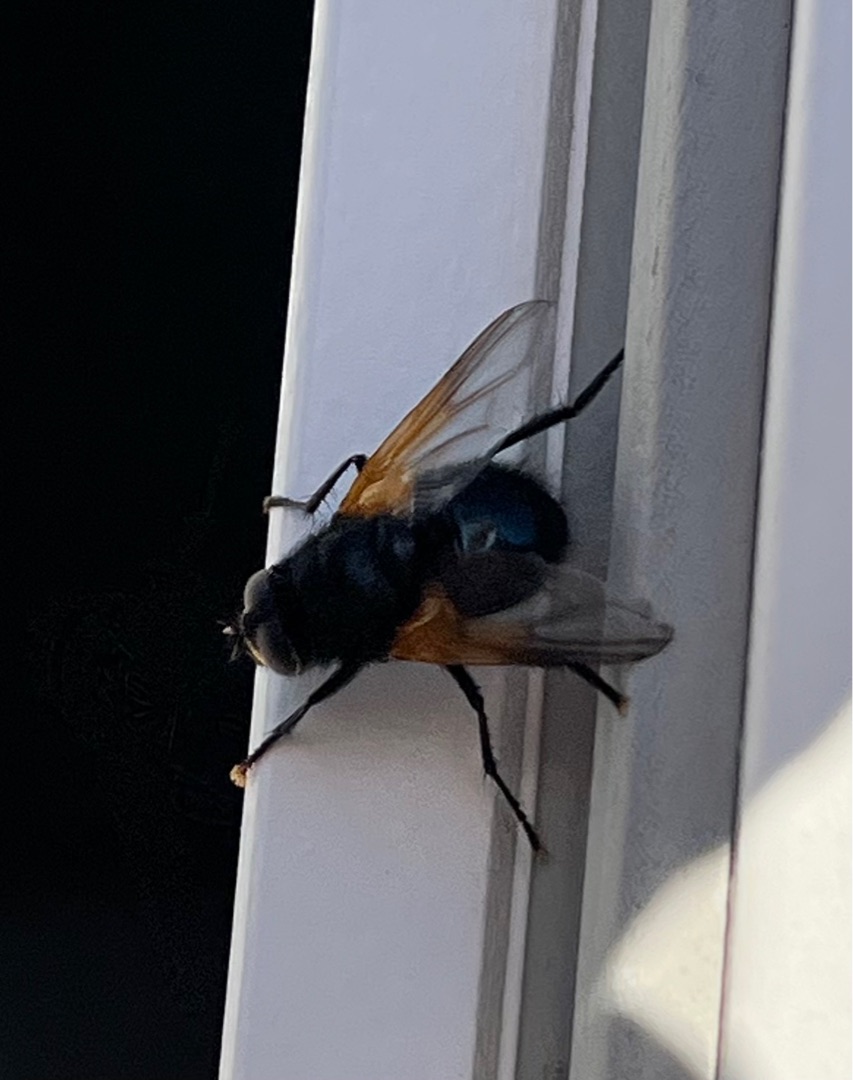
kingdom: Animalia
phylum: Arthropoda
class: Insecta
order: Diptera
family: Muscidae
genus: Mesembrina
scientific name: Mesembrina meridiana
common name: Gulvinget flue
